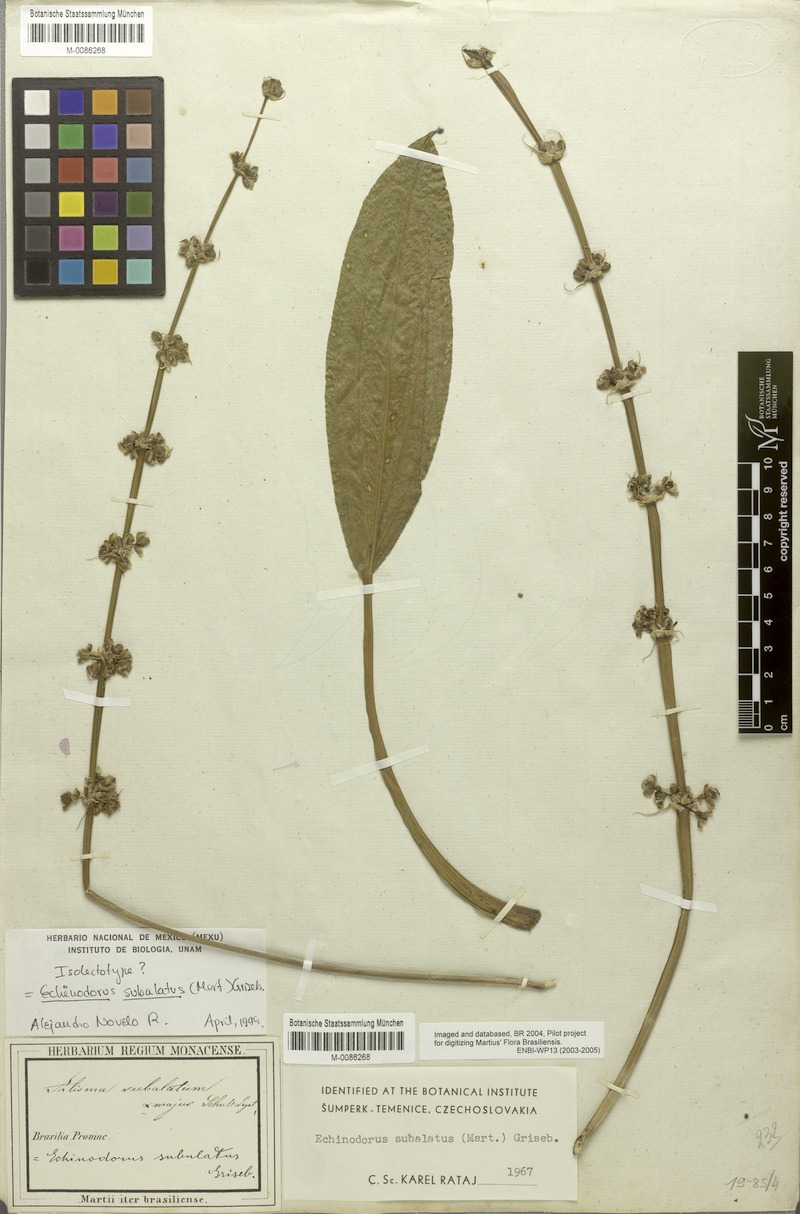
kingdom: Plantae
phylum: Tracheophyta
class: Liliopsida
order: Alismatales
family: Alismataceae
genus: Aquarius
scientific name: Aquarius subulatus
